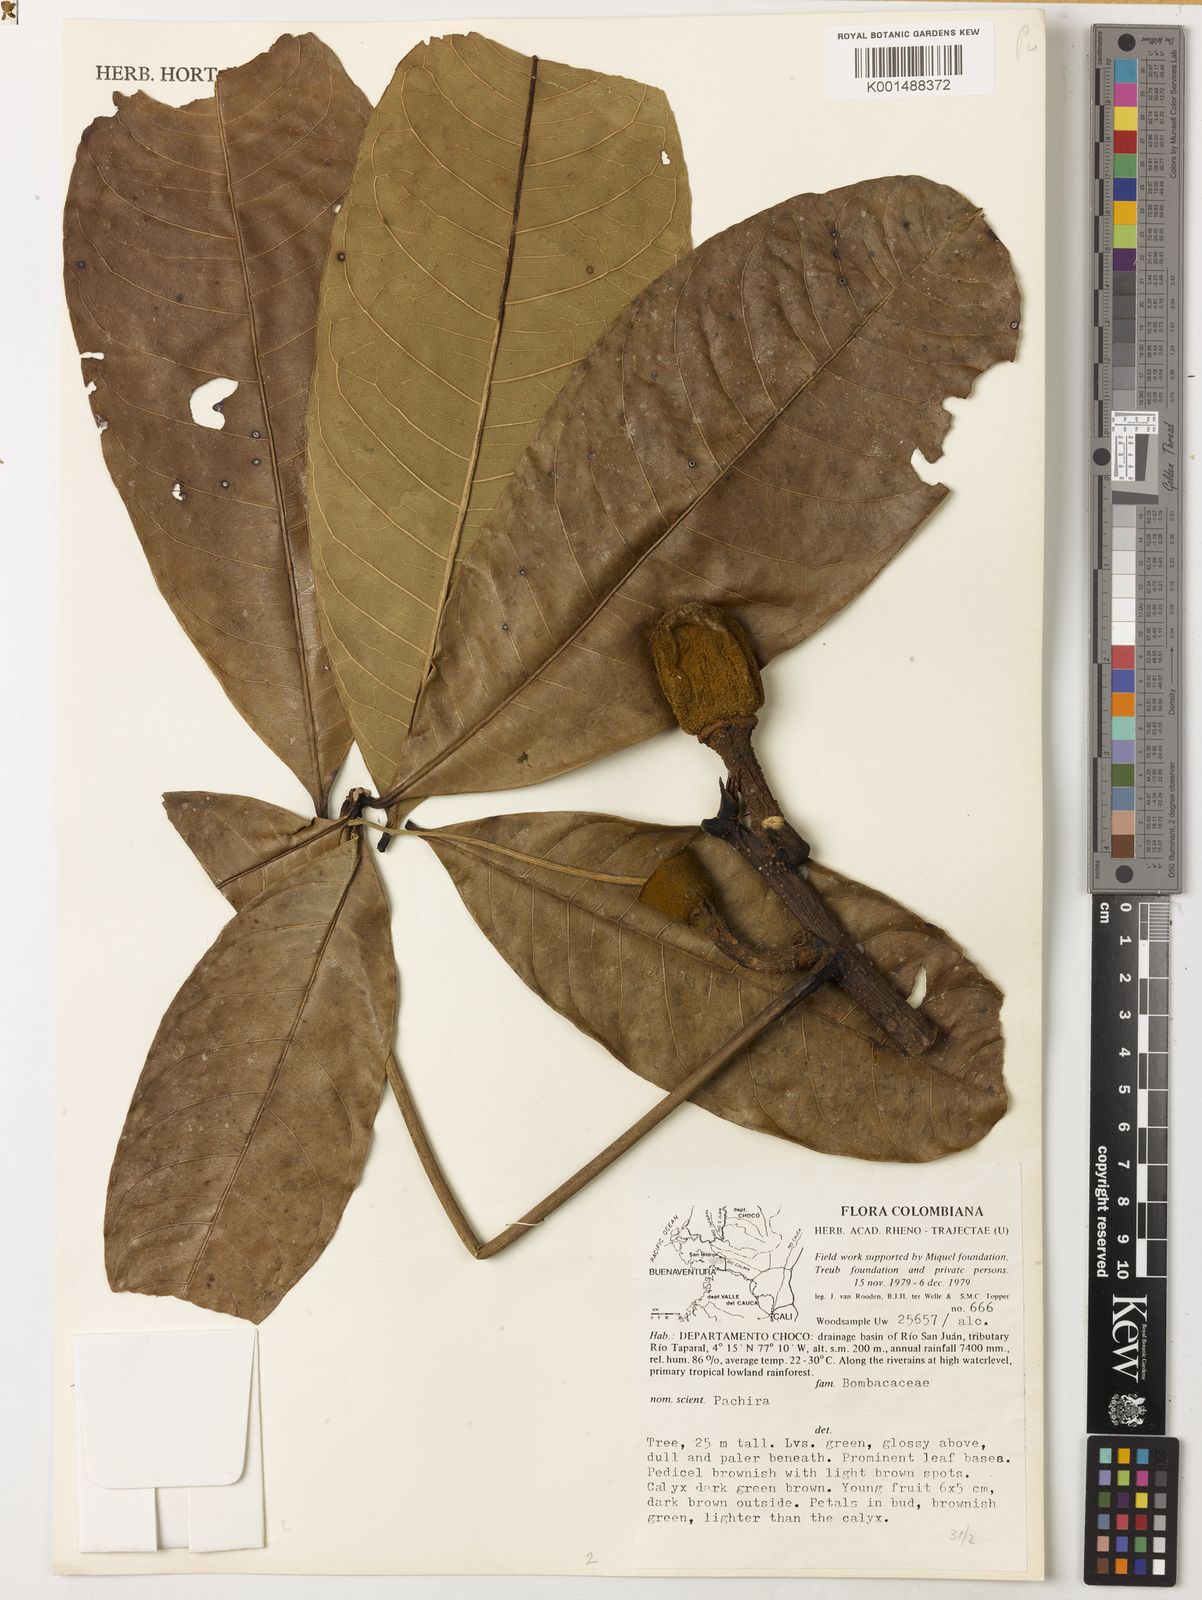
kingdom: Plantae
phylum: Tracheophyta
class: Magnoliopsida
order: Malvales
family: Malvaceae
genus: Pachira
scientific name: Pachira
